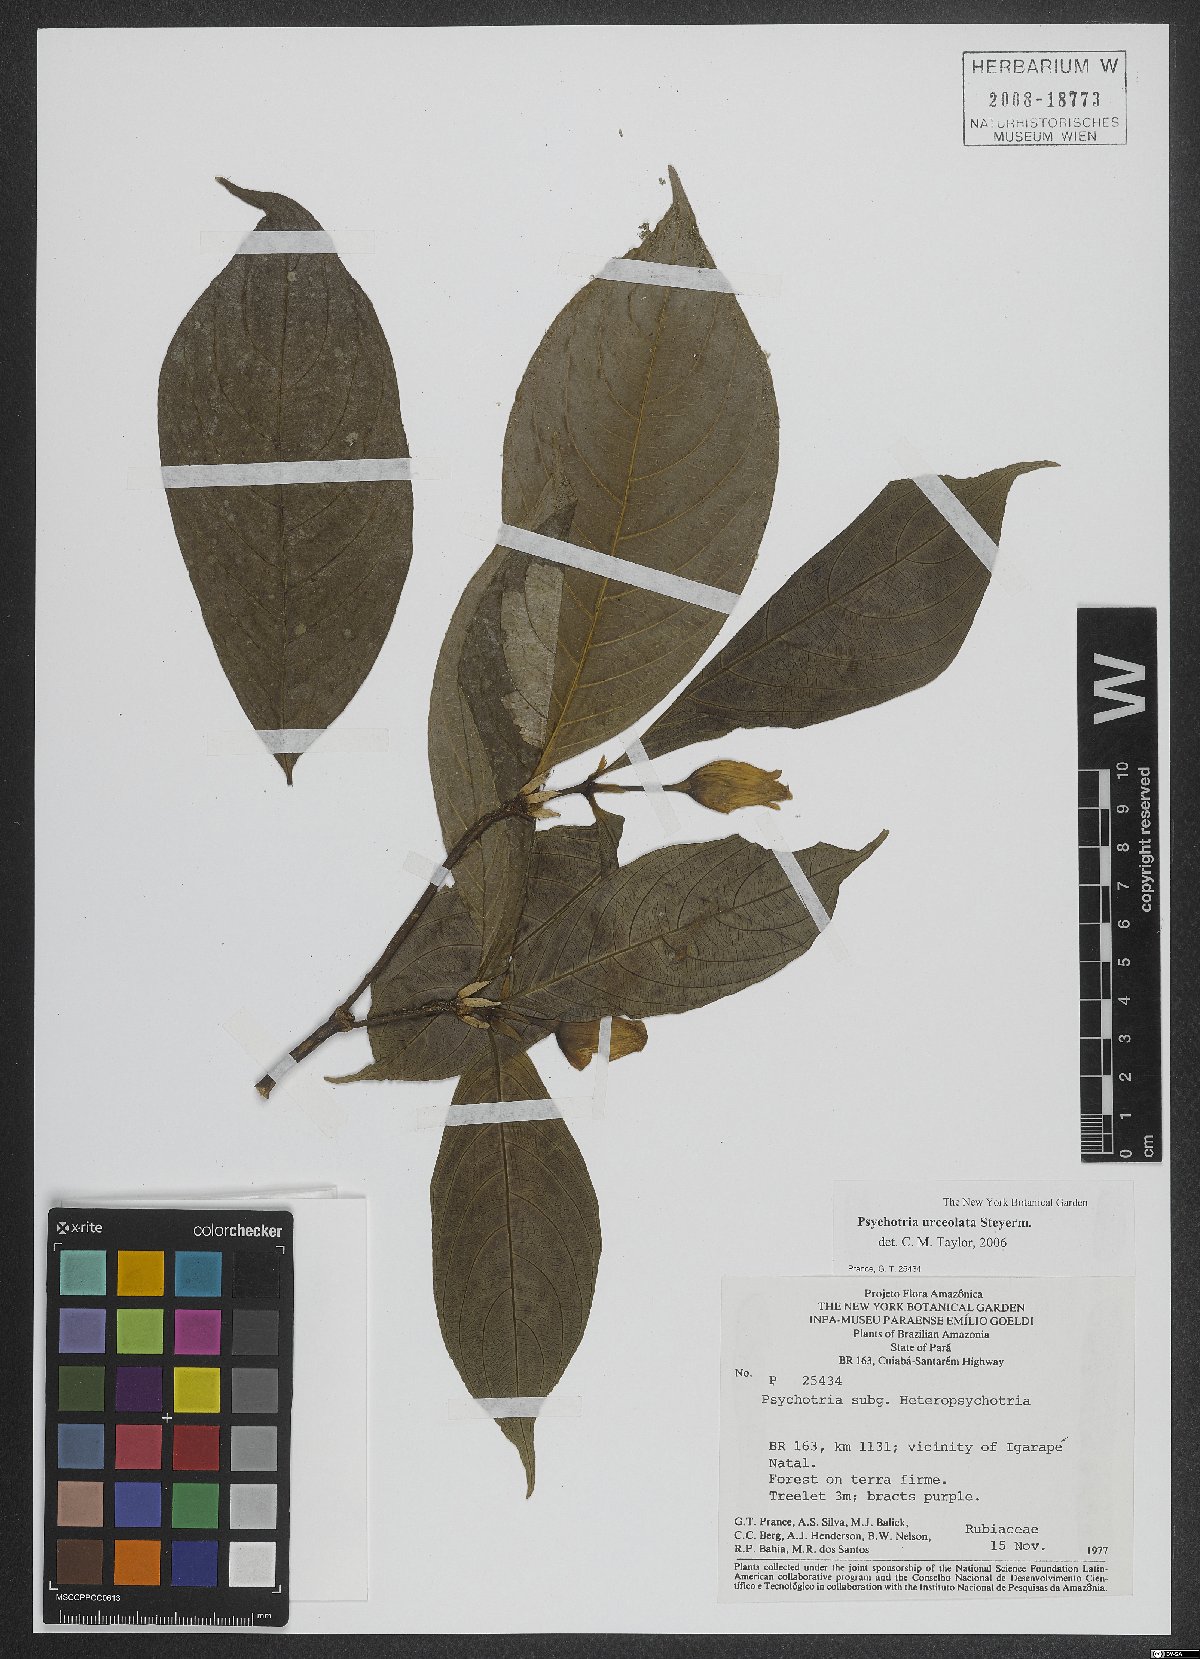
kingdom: Plantae
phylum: Tracheophyta
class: Magnoliopsida
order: Gentianales
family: Rubiaceae
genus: Palicourea
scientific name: Palicourea urceolata
